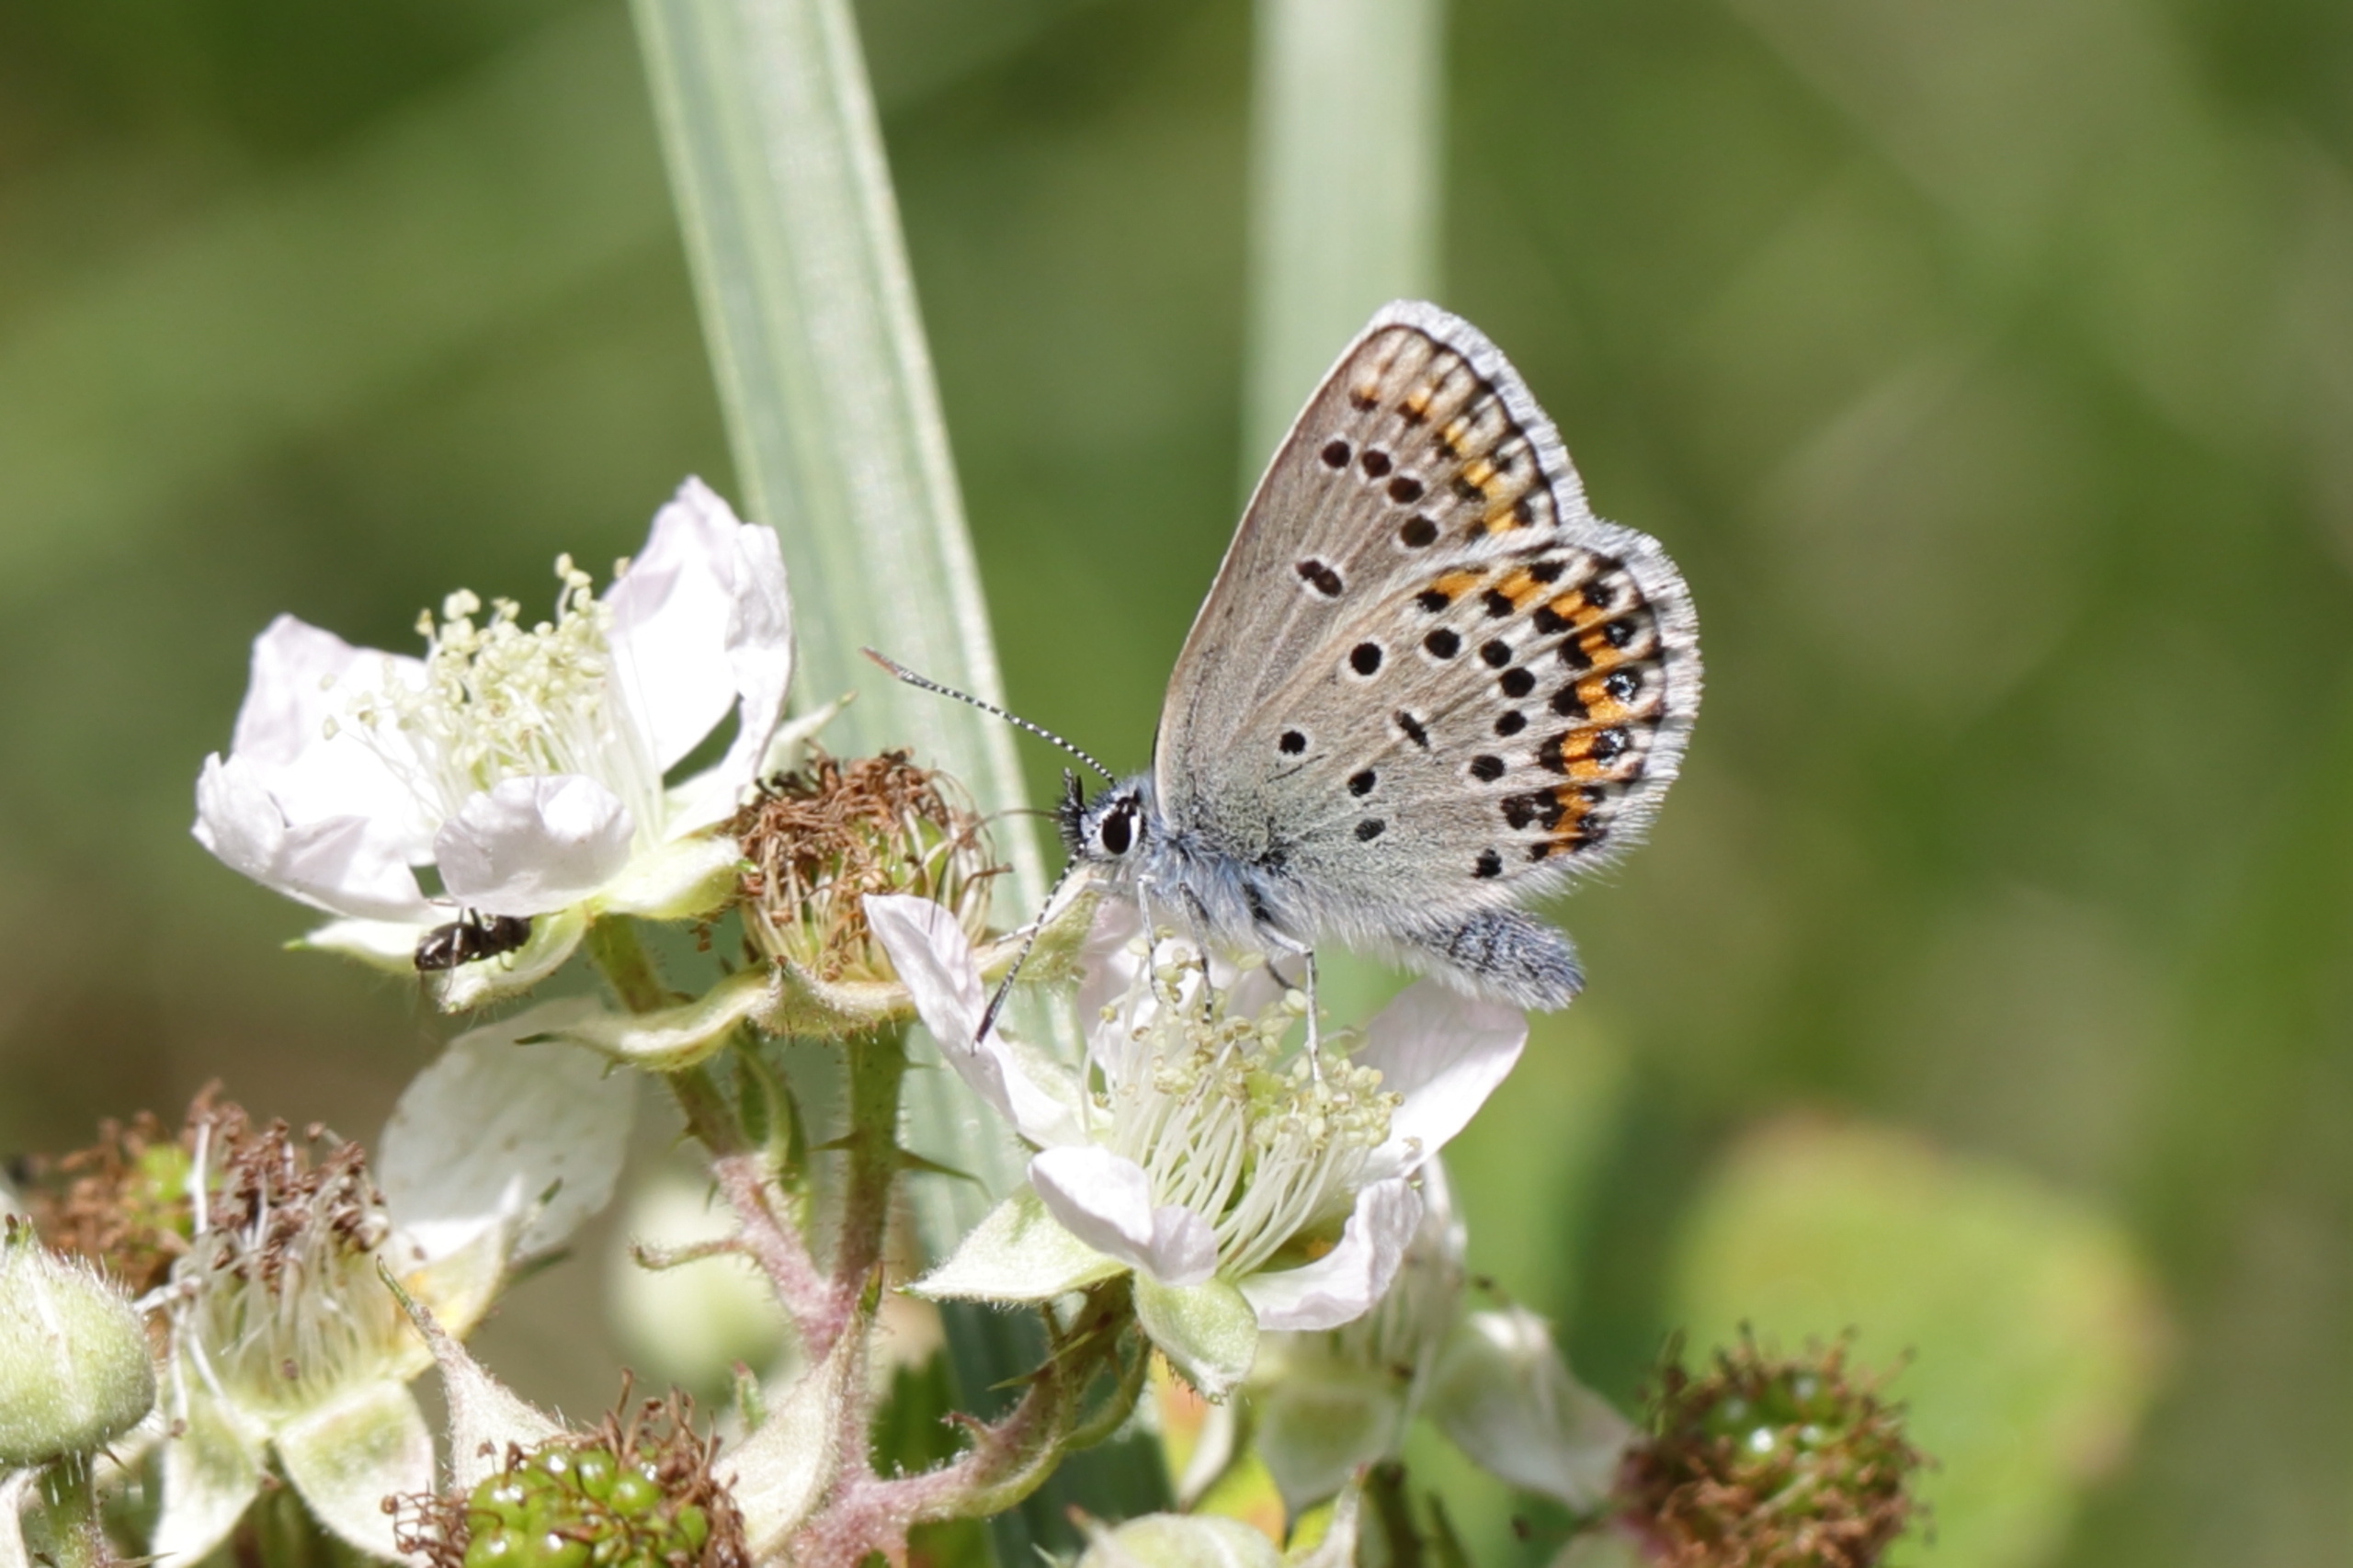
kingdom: Animalia
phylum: Arthropoda
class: Insecta
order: Lepidoptera
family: Lycaenidae
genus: Lycaeides
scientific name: Lycaeides idas
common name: Foranderlig blåfugl
